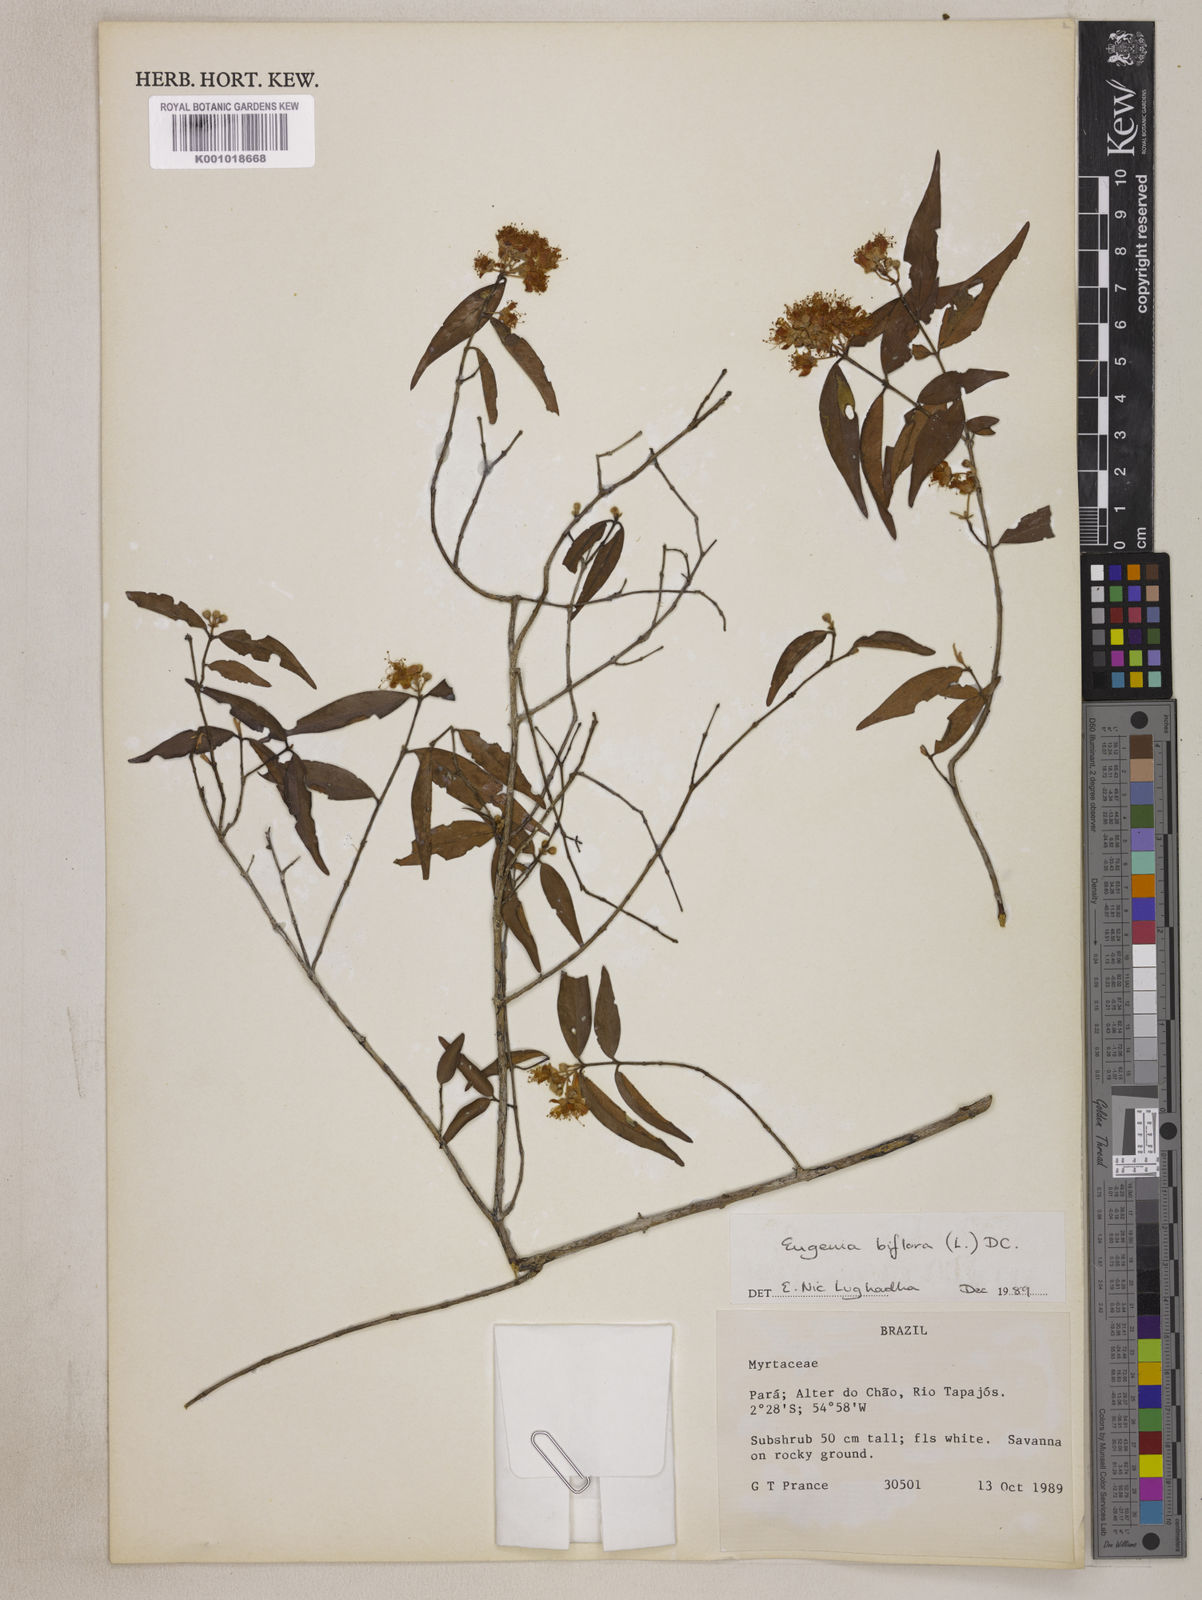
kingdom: Plantae
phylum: Tracheophyta
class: Magnoliopsida
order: Myrtales
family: Myrtaceae
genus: Eugenia
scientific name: Eugenia biflora
